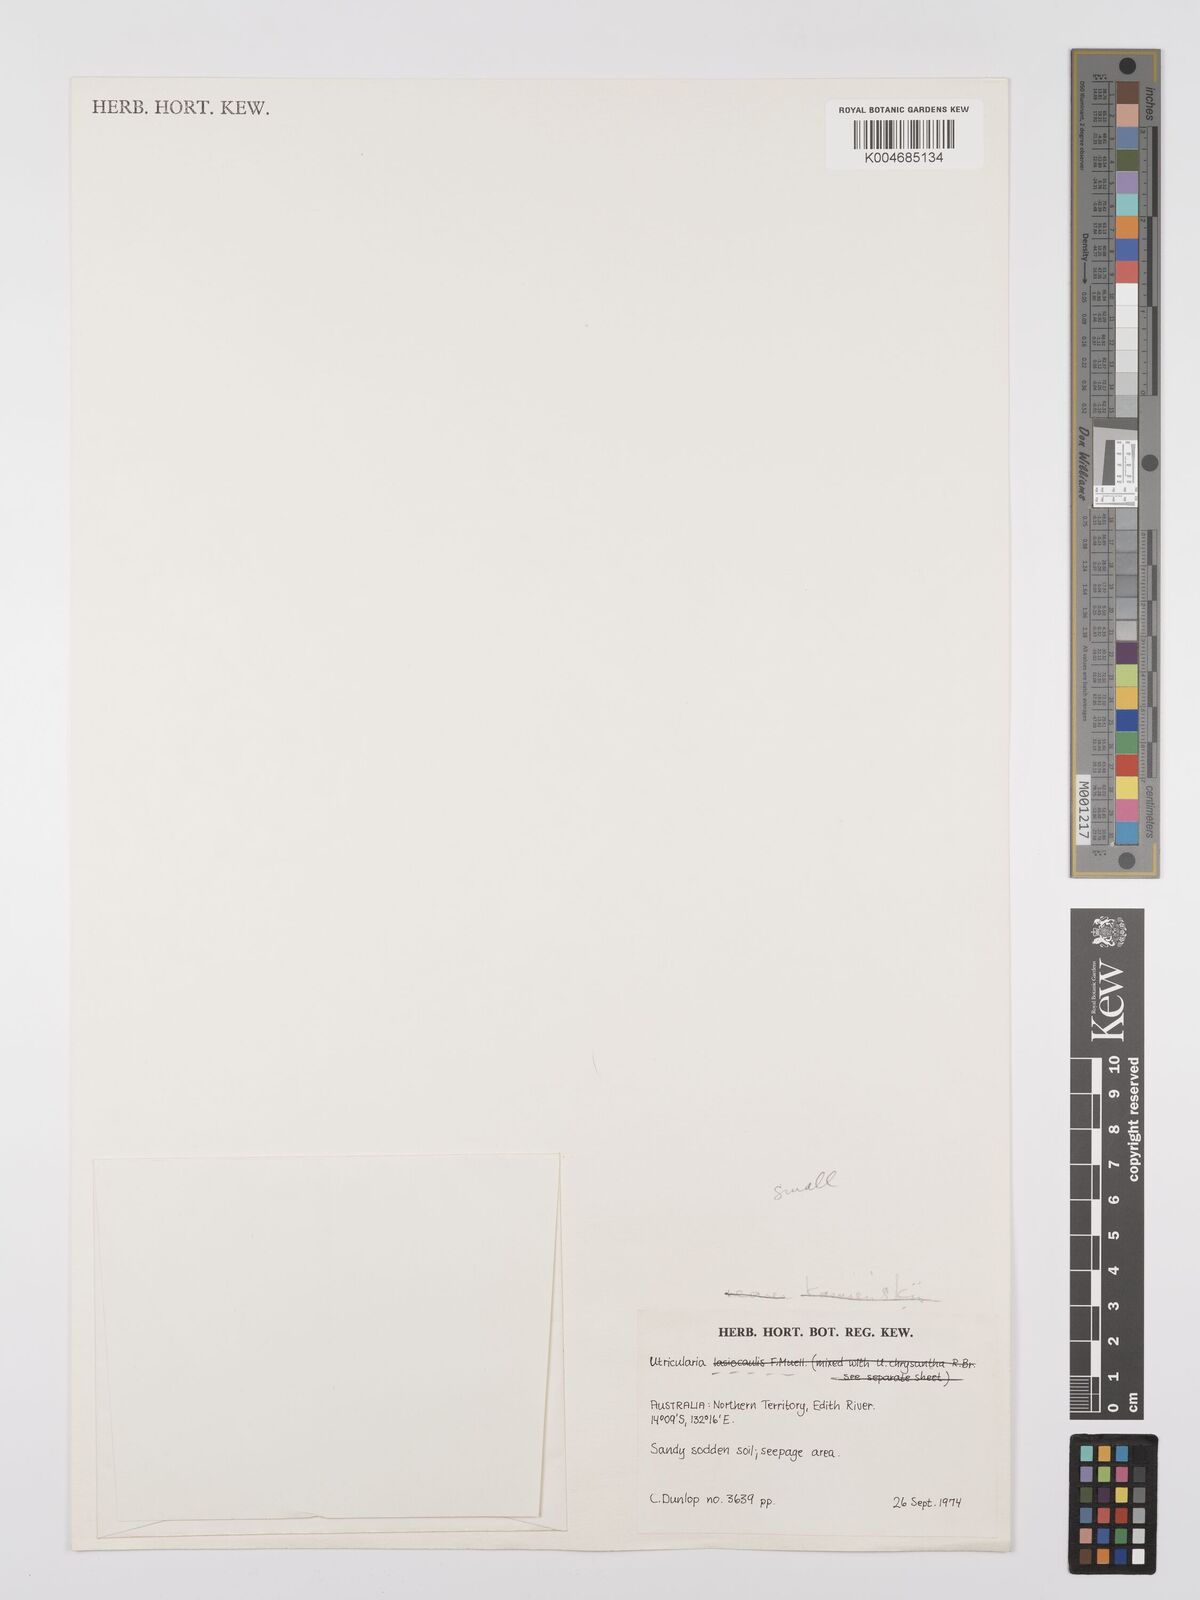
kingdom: Plantae
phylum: Tracheophyta
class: Magnoliopsida
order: Lamiales
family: Lentibulariaceae
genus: Utricularia
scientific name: Utricularia lasiocaulis
